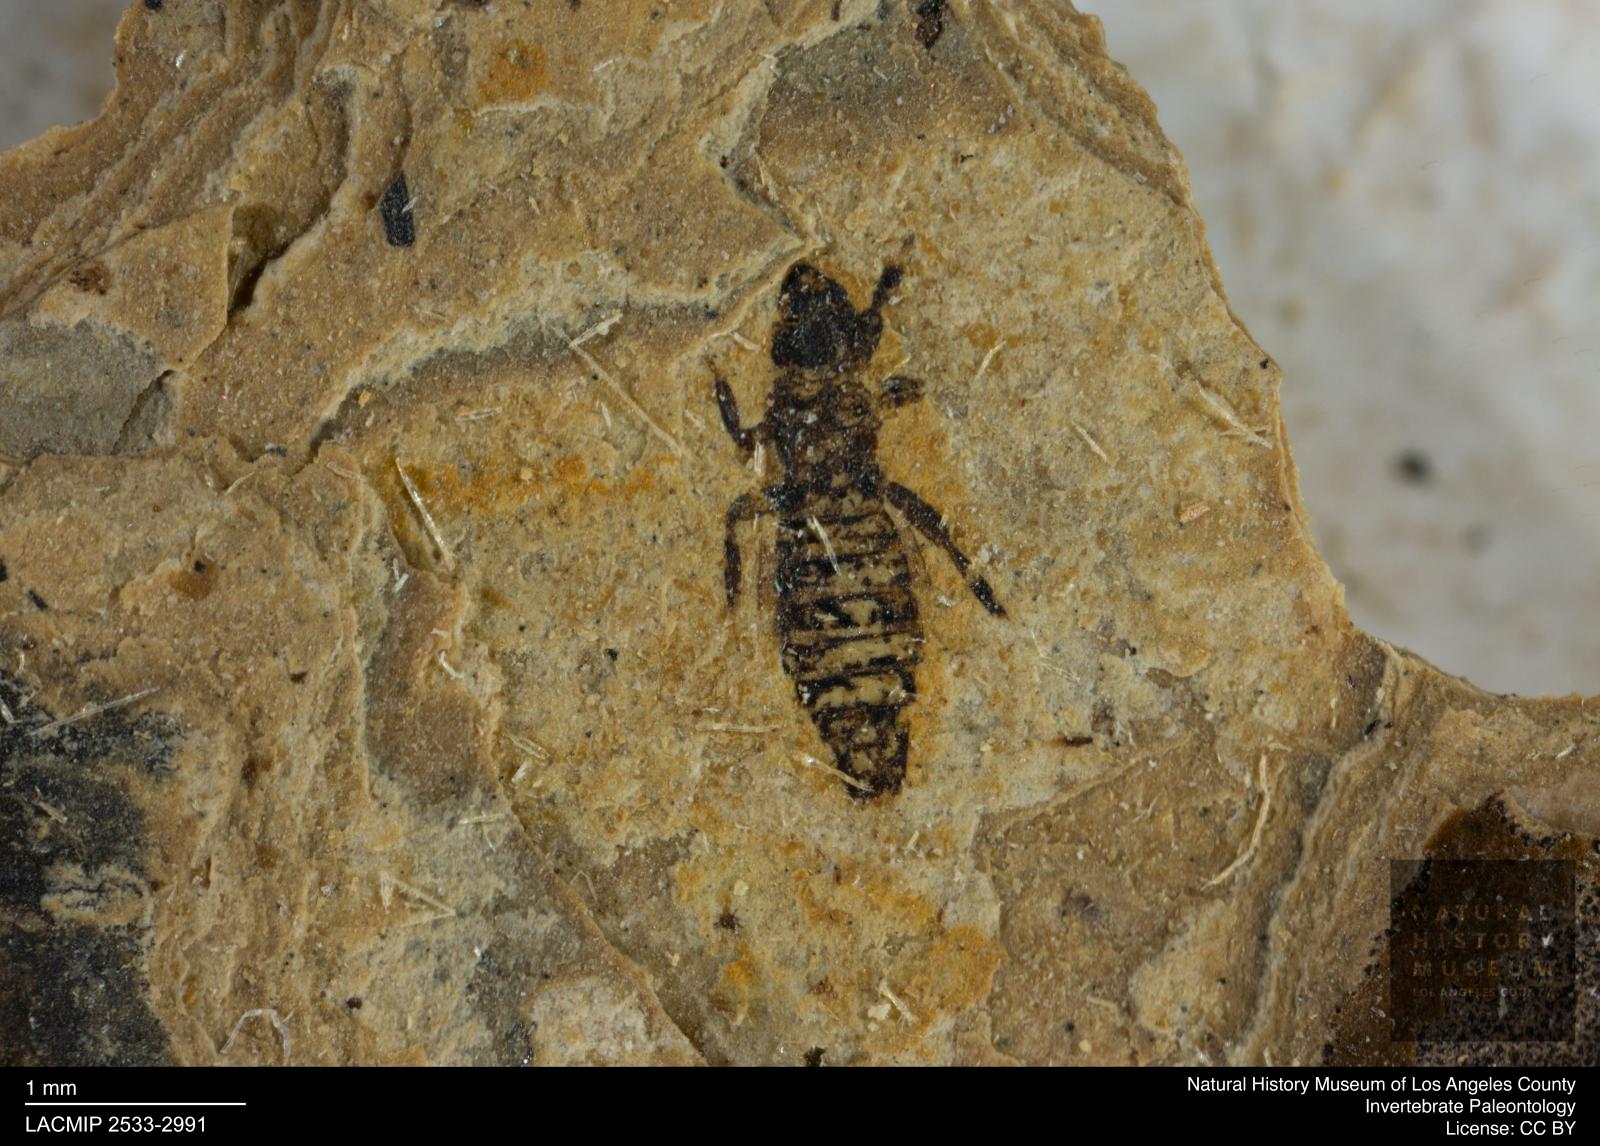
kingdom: Animalia
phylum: Arthropoda
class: Insecta
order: Thysanoptera
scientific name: Thysanoptera
